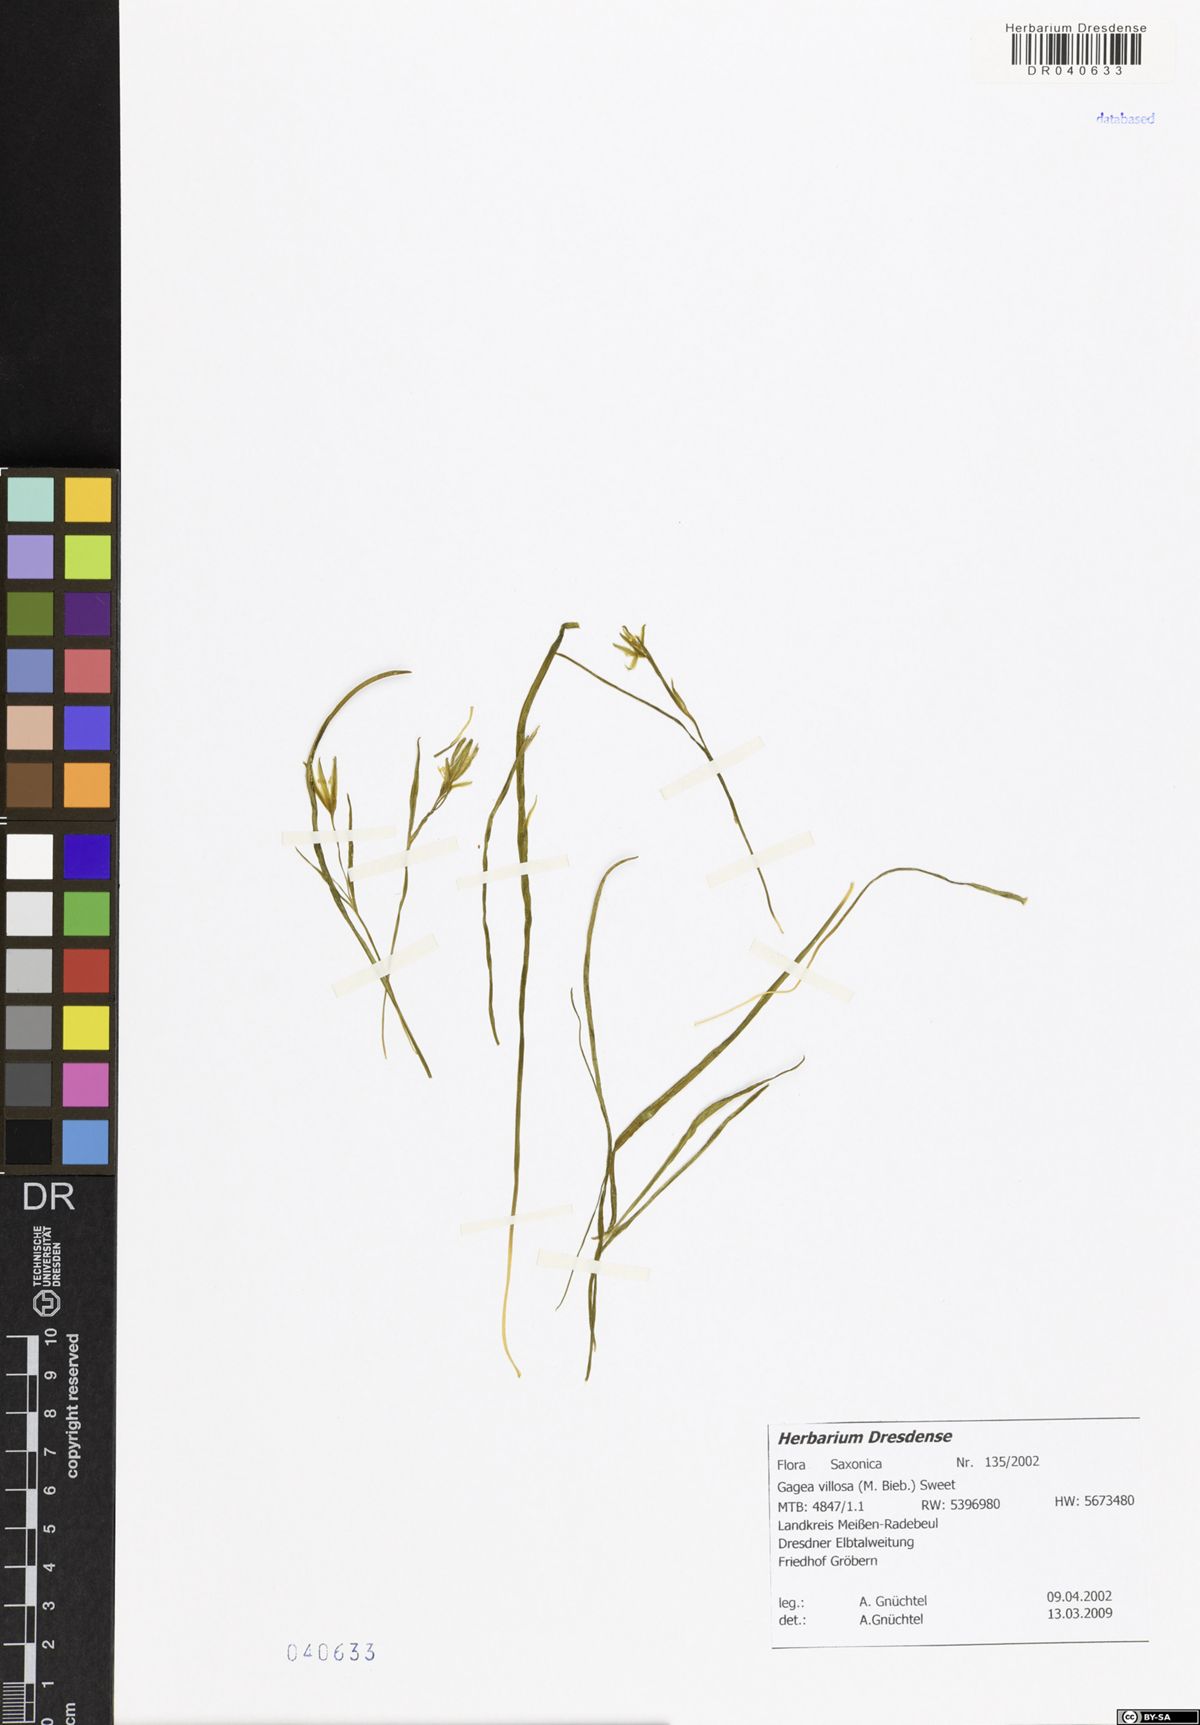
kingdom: Plantae
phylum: Tracheophyta
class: Liliopsida
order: Liliales
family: Liliaceae
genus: Gagea
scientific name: Gagea villosa
